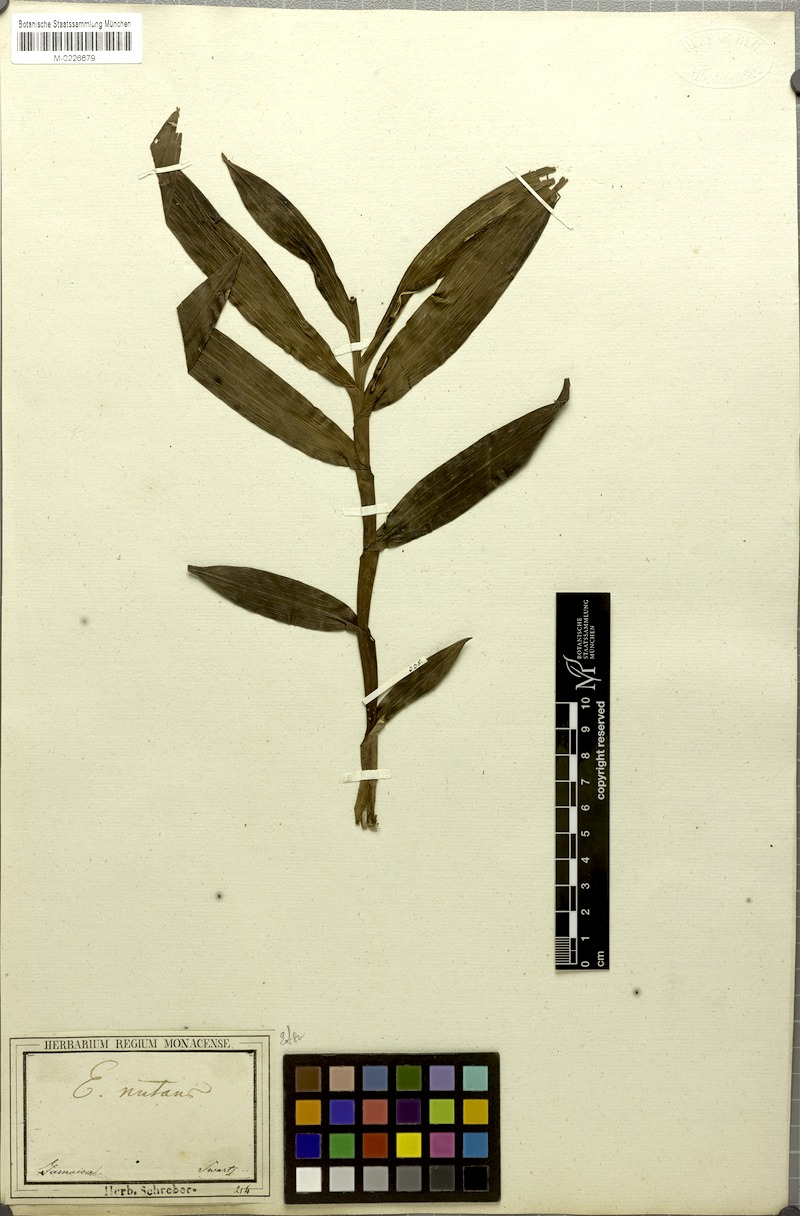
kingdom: Plantae
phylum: Tracheophyta
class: Liliopsida
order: Asparagales
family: Orchidaceae
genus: Epidendrum
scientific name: Epidendrum nutans
